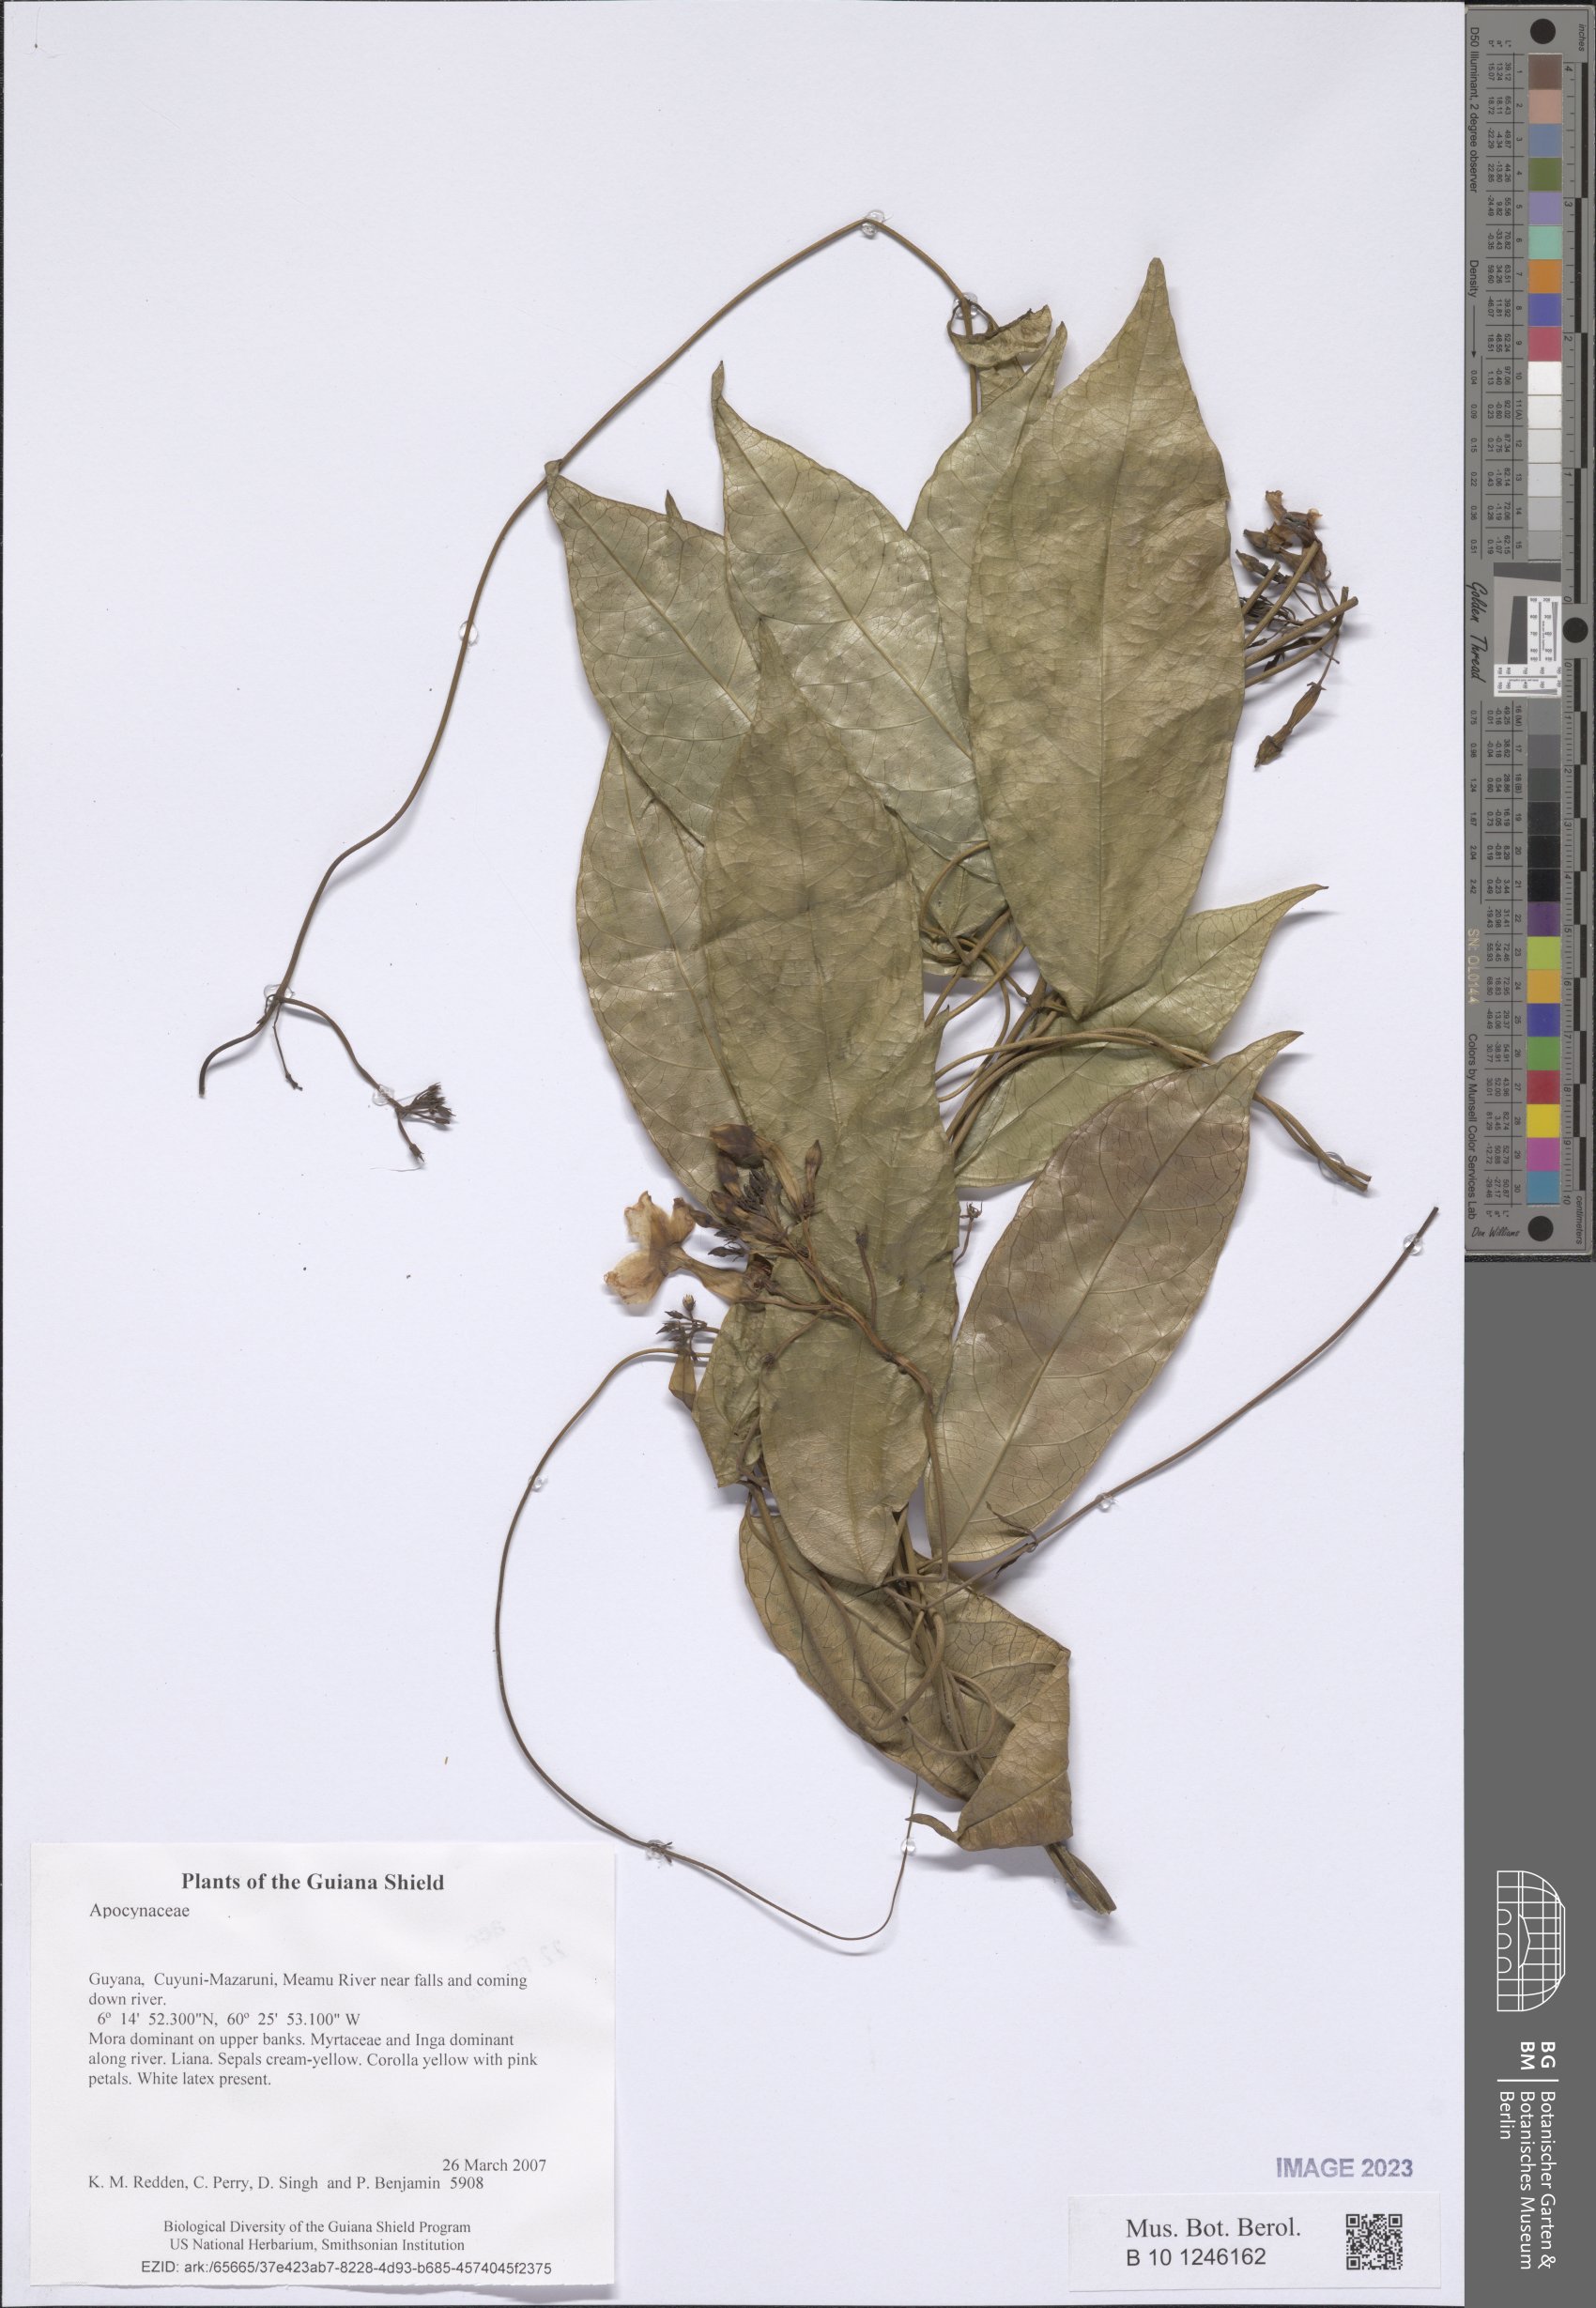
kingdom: Plantae
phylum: Tracheophyta
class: Magnoliopsida
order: Gentianales
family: Apocynaceae
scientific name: Apocynaceae
